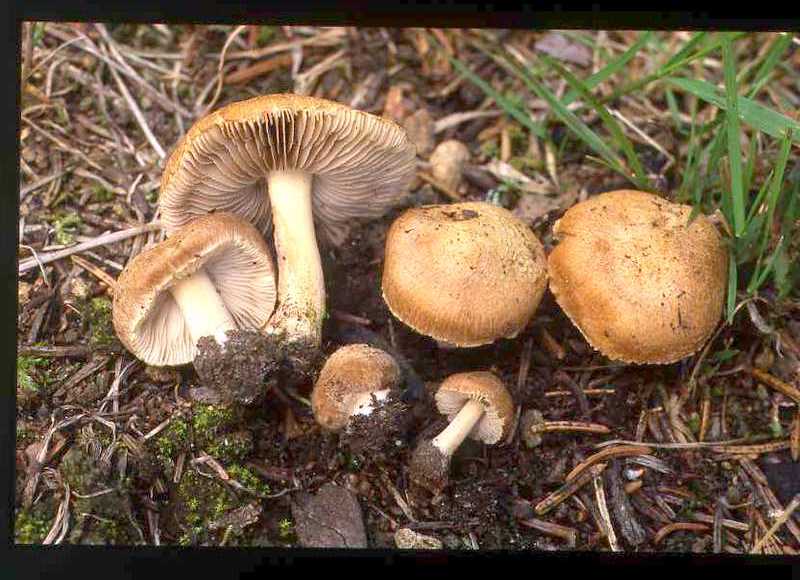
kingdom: Fungi
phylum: Basidiomycota
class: Agaricomycetes
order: Agaricales
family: Inocybaceae
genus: Inocybe
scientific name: Inocybe urceolicystis
